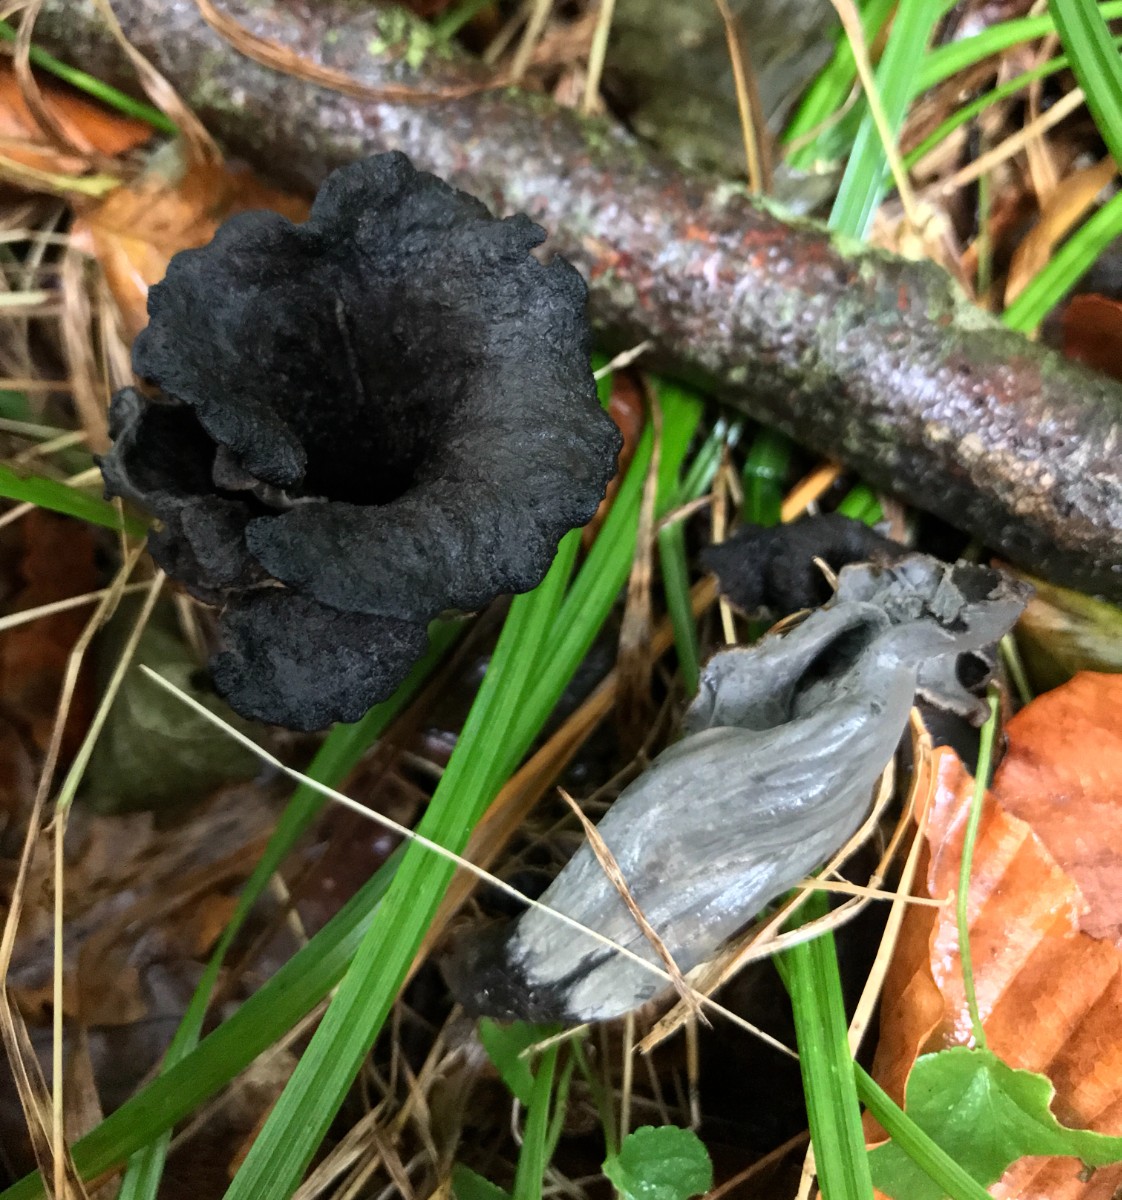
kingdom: Fungi
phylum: Basidiomycota
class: Agaricomycetes
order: Cantharellales
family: Hydnaceae
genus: Craterellus
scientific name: Craterellus cornucopioides
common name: trompetsvamp
